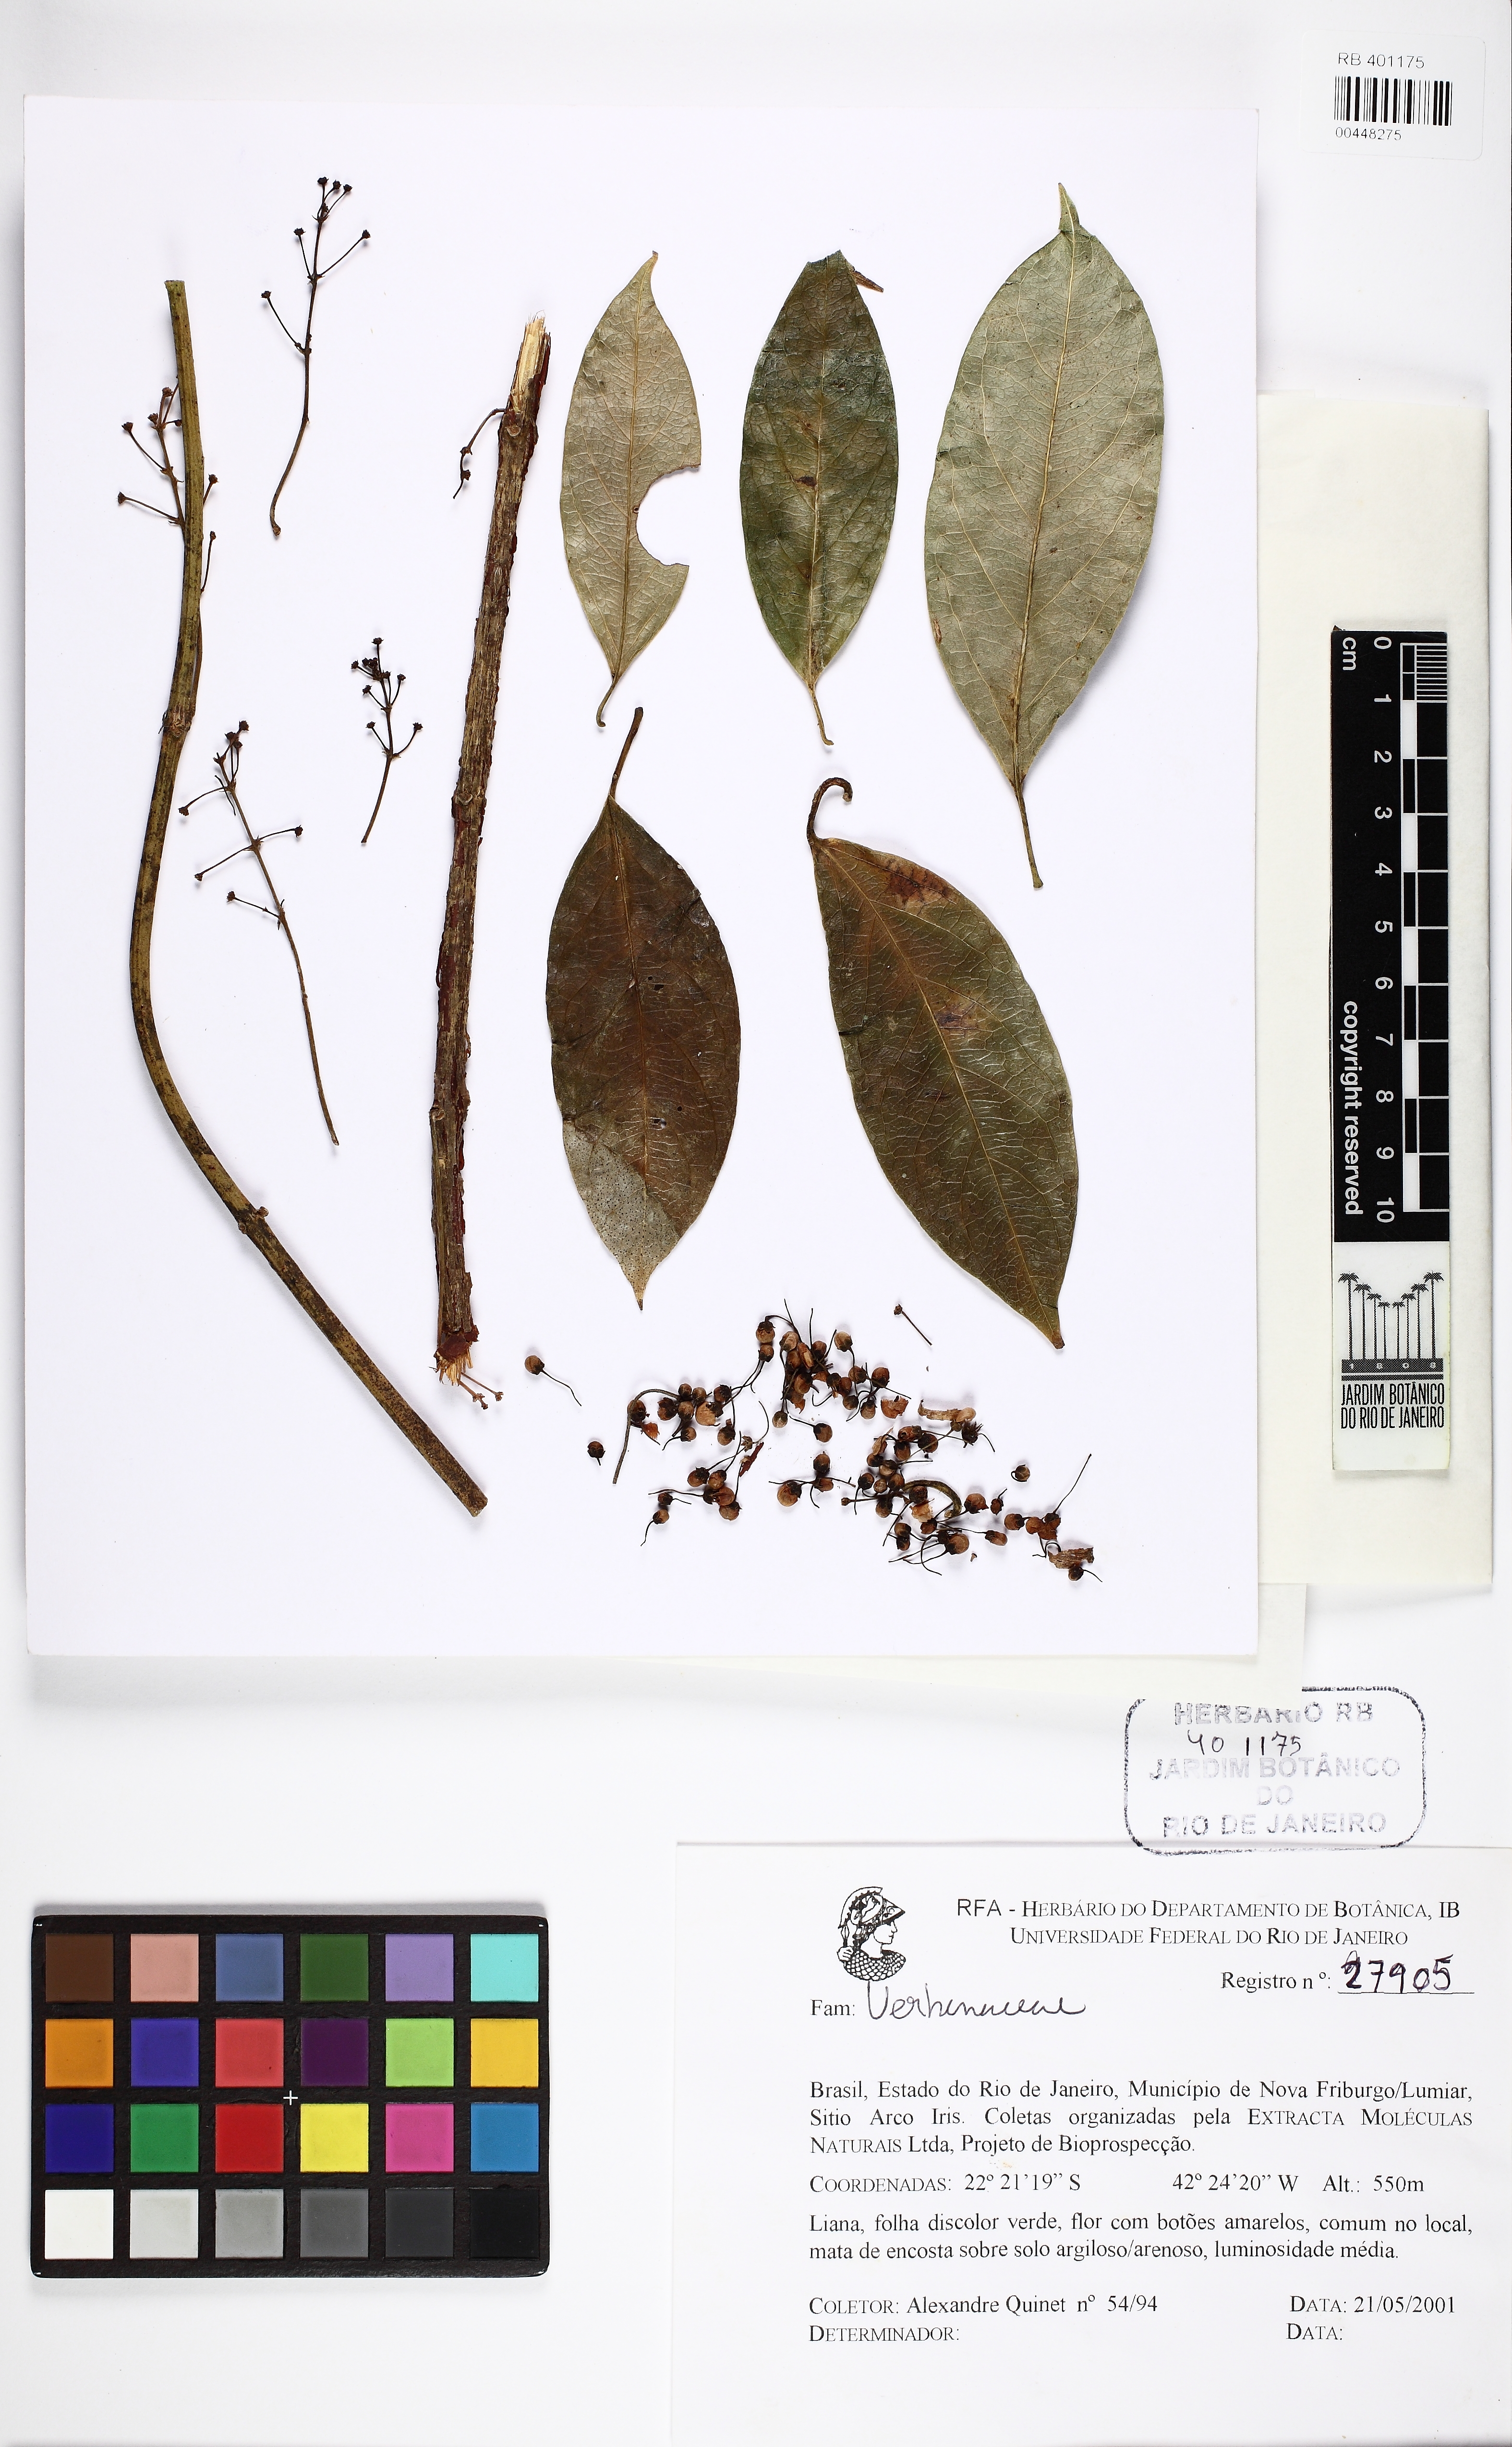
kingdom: Plantae
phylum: Tracheophyta
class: Magnoliopsida
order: Lamiales
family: Verbenaceae
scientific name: Verbenaceae
